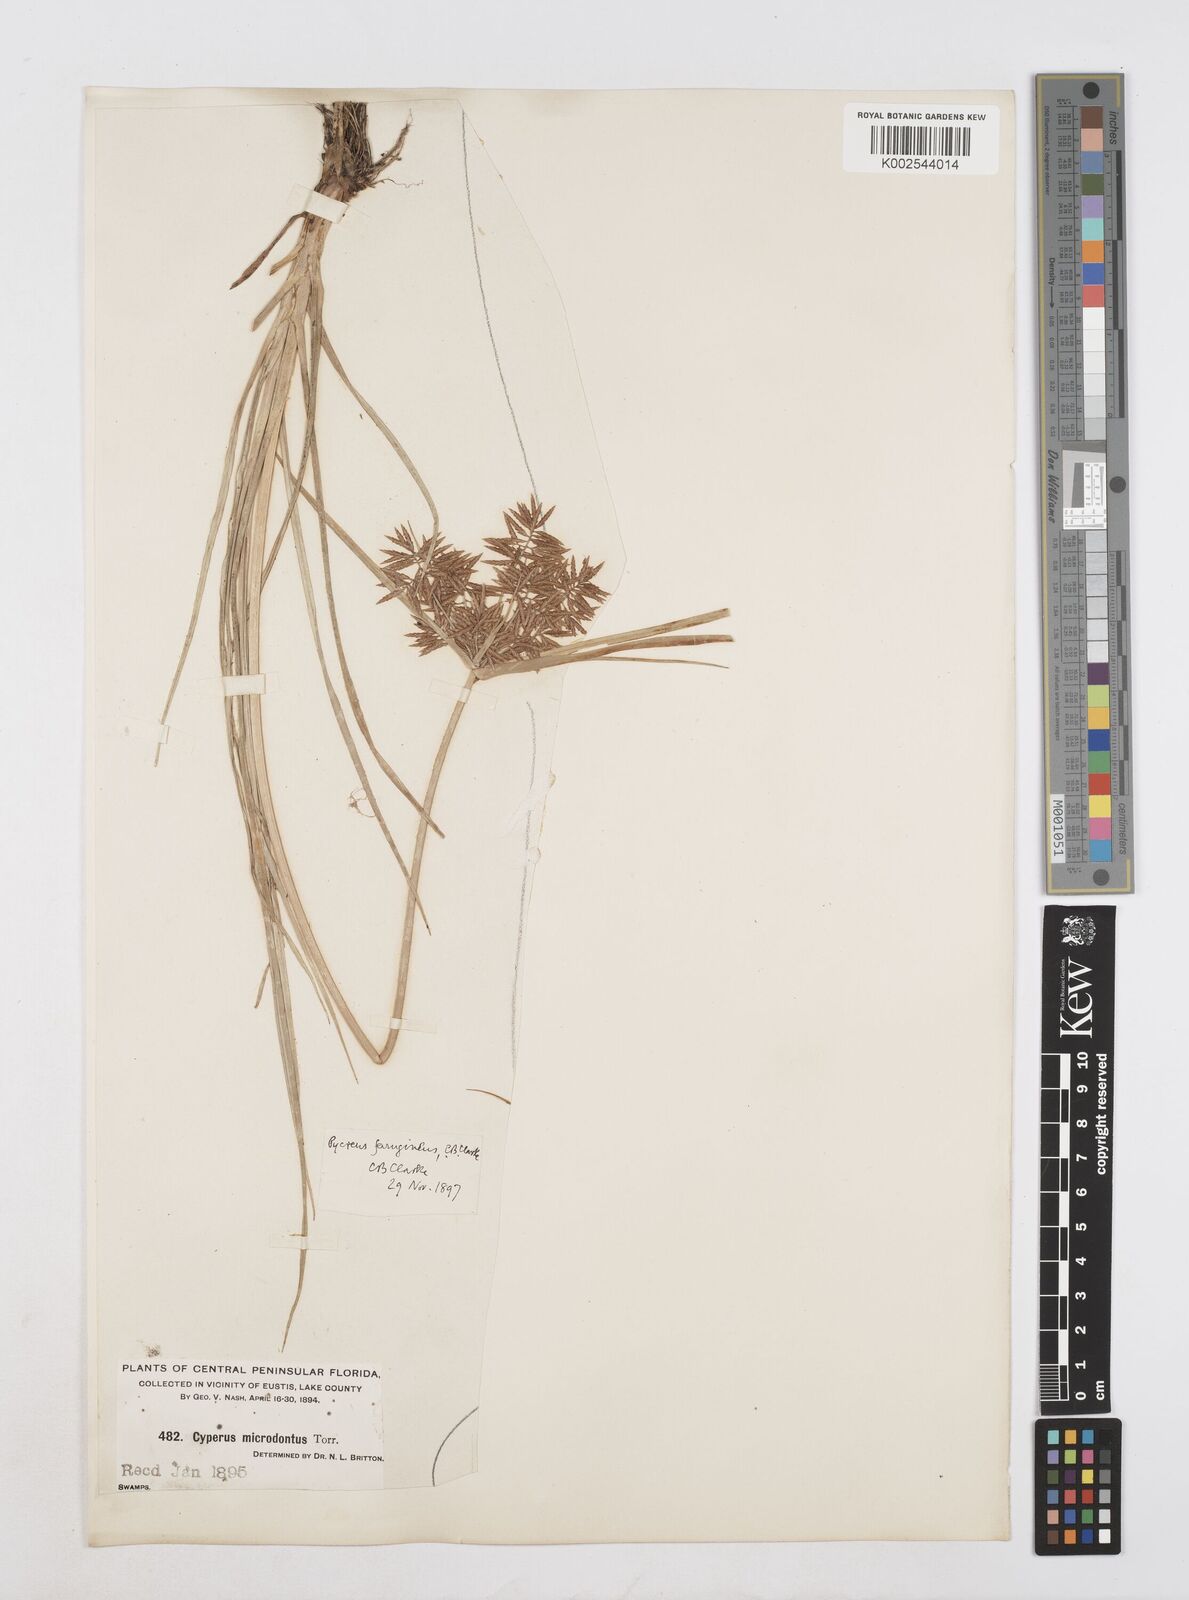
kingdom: Plantae
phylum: Tracheophyta
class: Liliopsida
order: Poales
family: Cyperaceae
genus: Cyperus
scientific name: Cyperus filicinus
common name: Fern flatsedge
